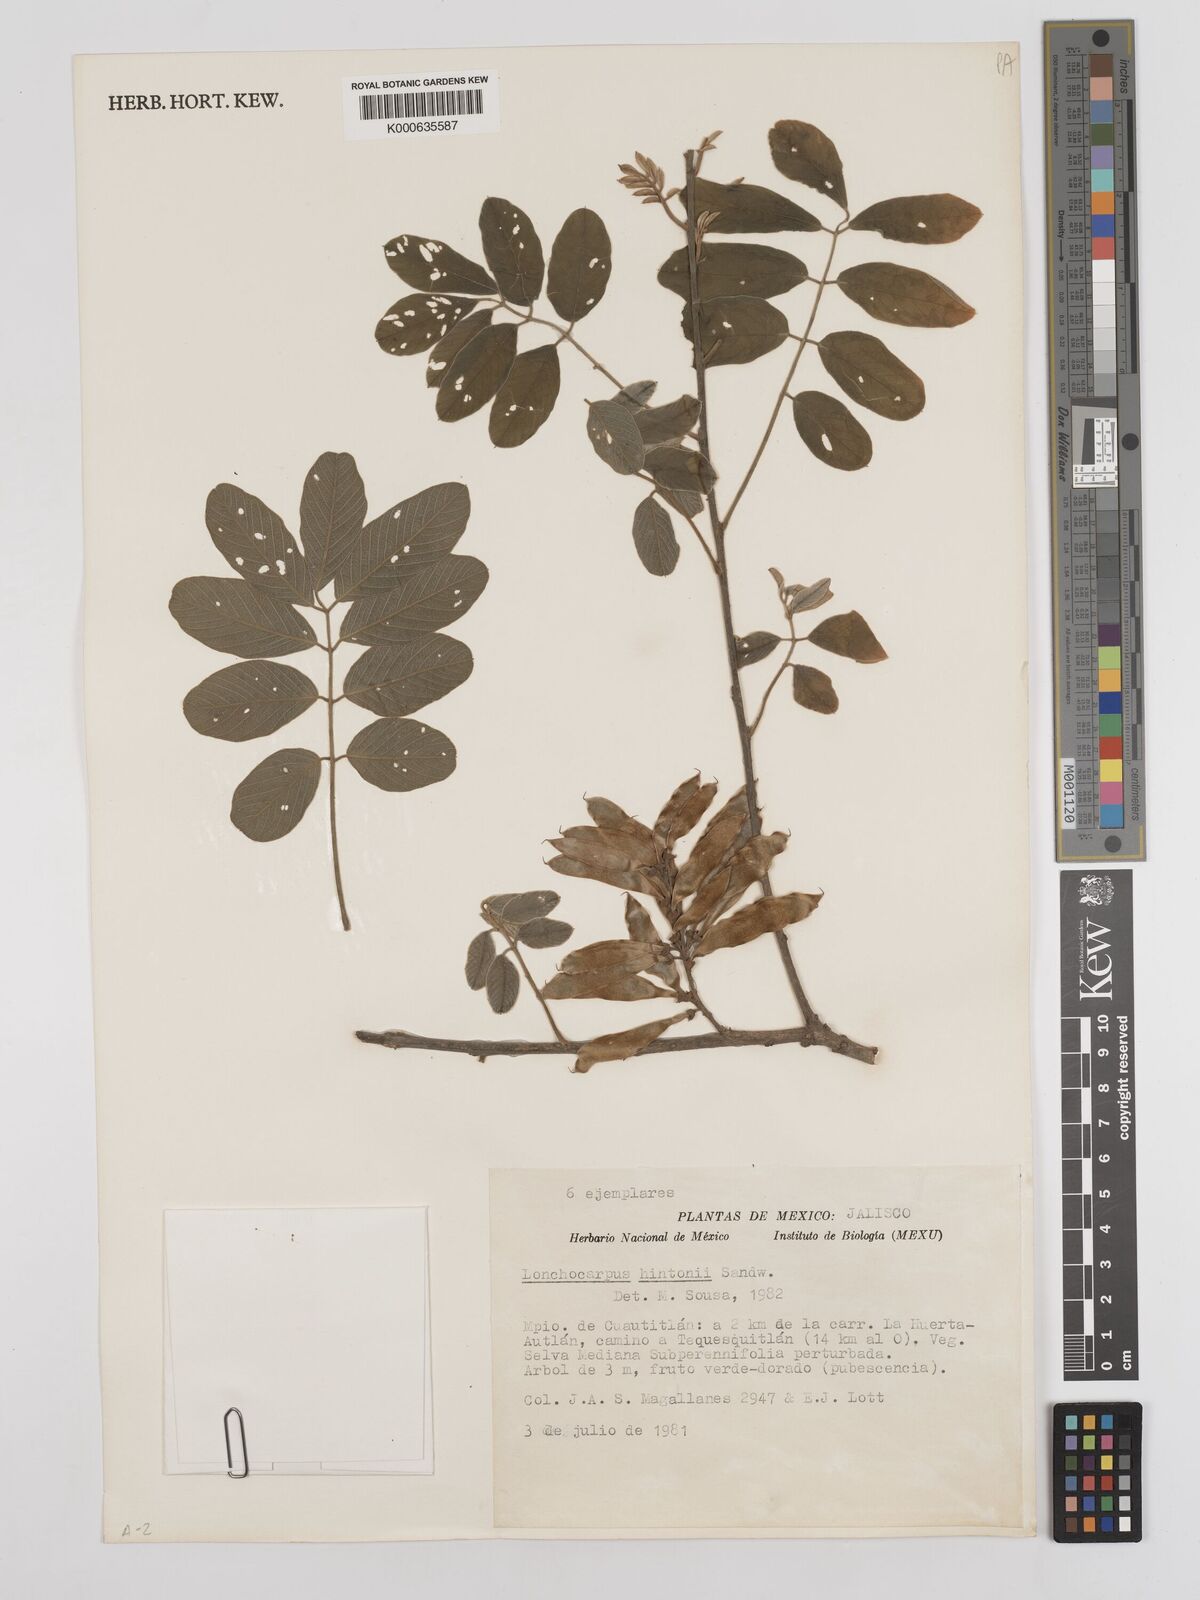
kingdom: Plantae
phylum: Tracheophyta
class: Magnoliopsida
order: Fabales
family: Fabaceae
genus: Lonchocarpus
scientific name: Lonchocarpus hintonii
